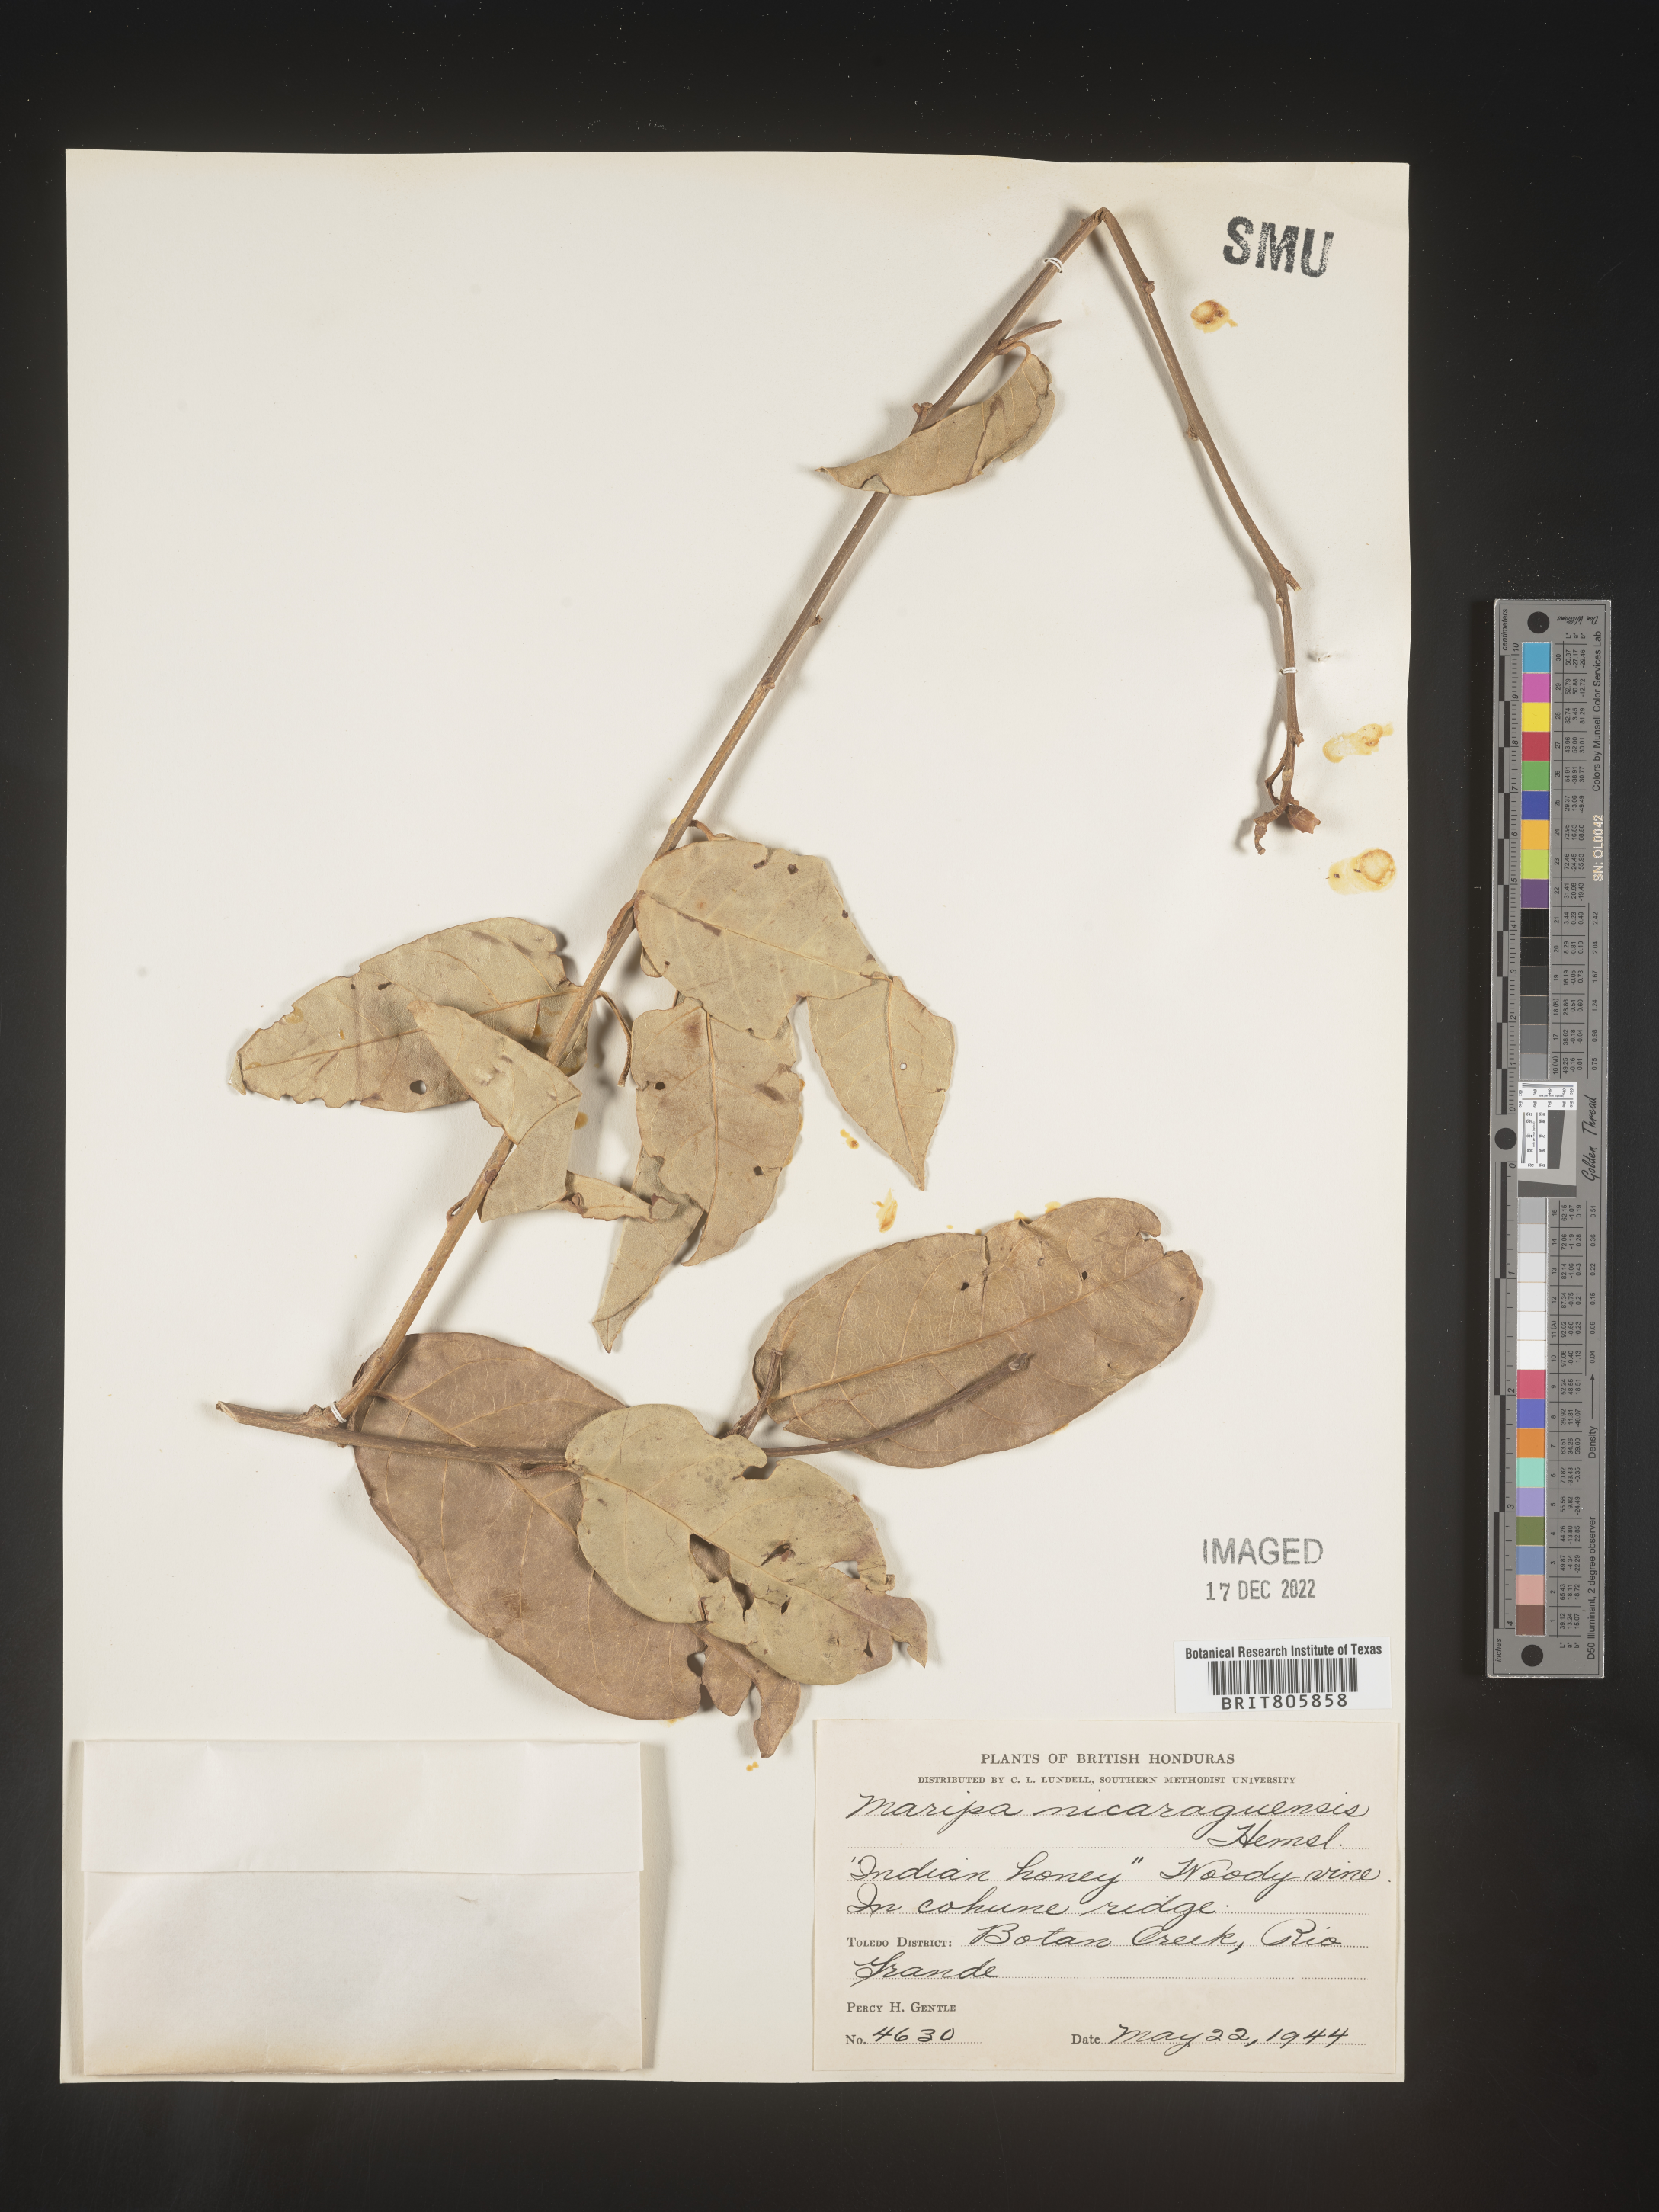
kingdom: Plantae
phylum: Tracheophyta
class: Magnoliopsida
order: Solanales
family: Convolvulaceae
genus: Maripa
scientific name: Maripa
